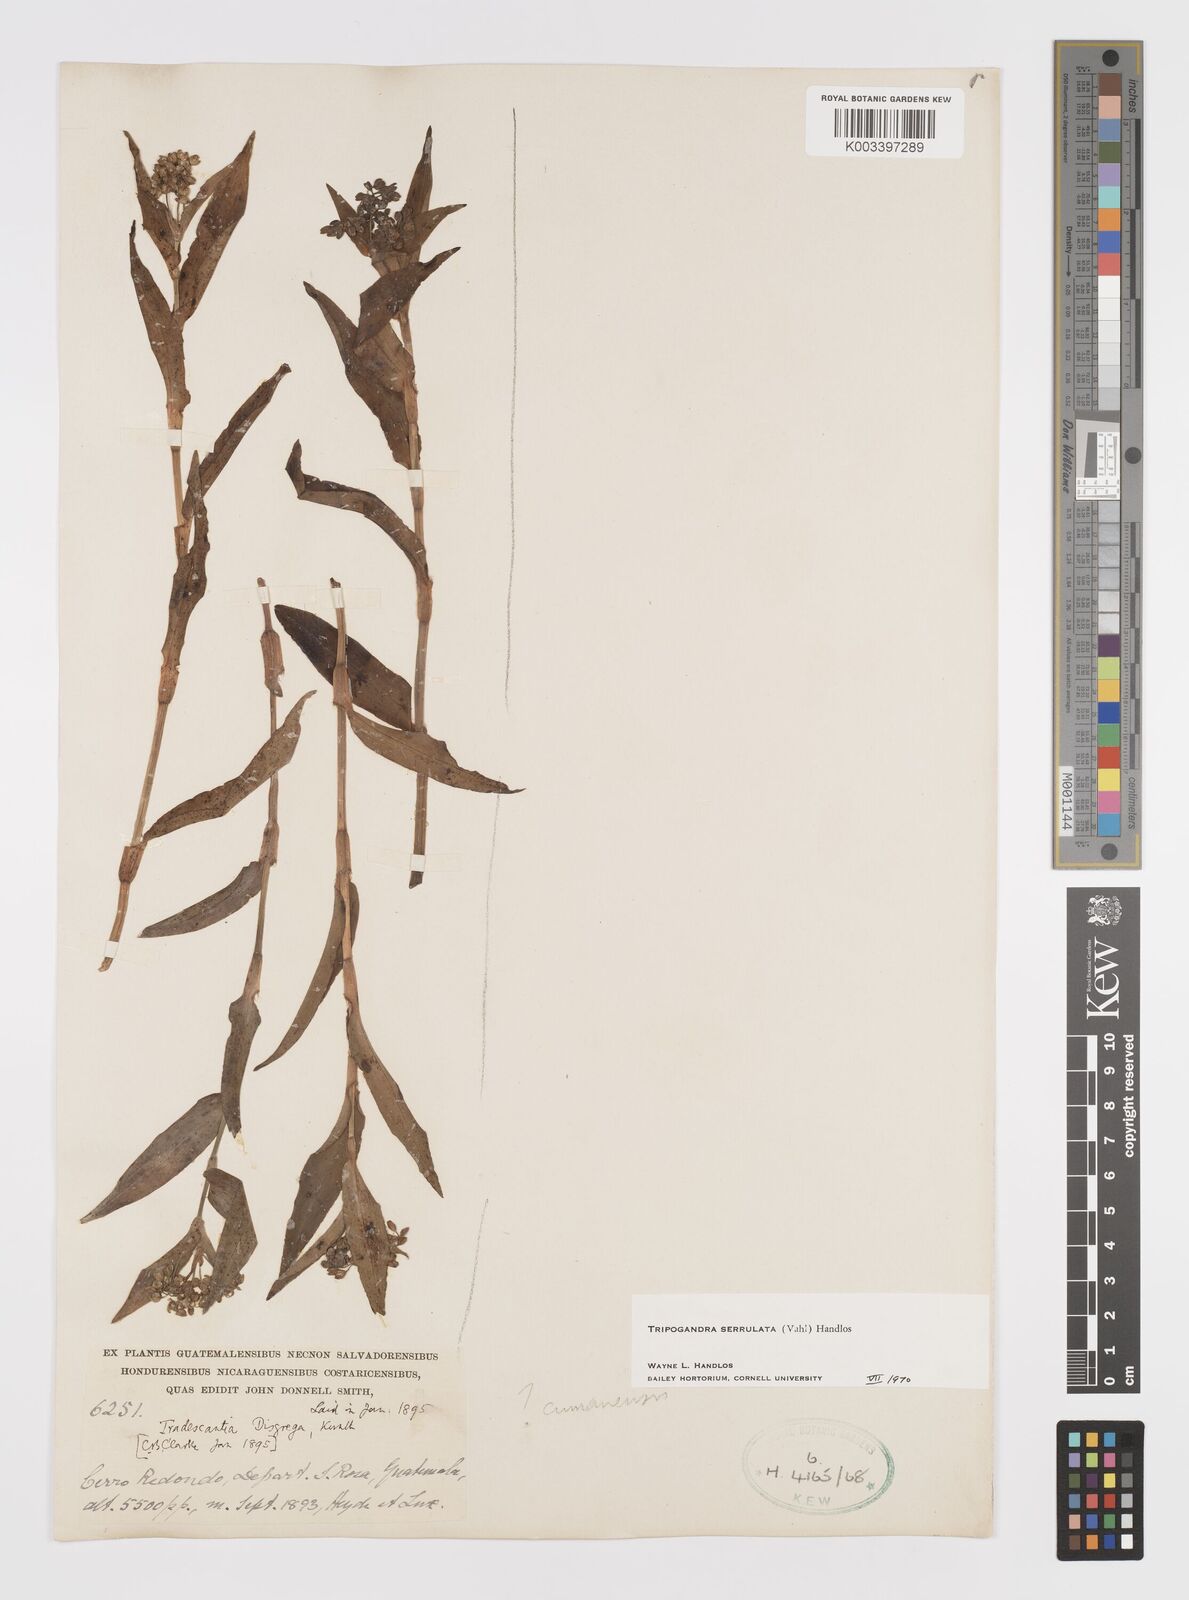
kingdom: Plantae
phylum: Tracheophyta
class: Liliopsida
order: Commelinales
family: Commelinaceae
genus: Callisia
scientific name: Callisia serrulata
